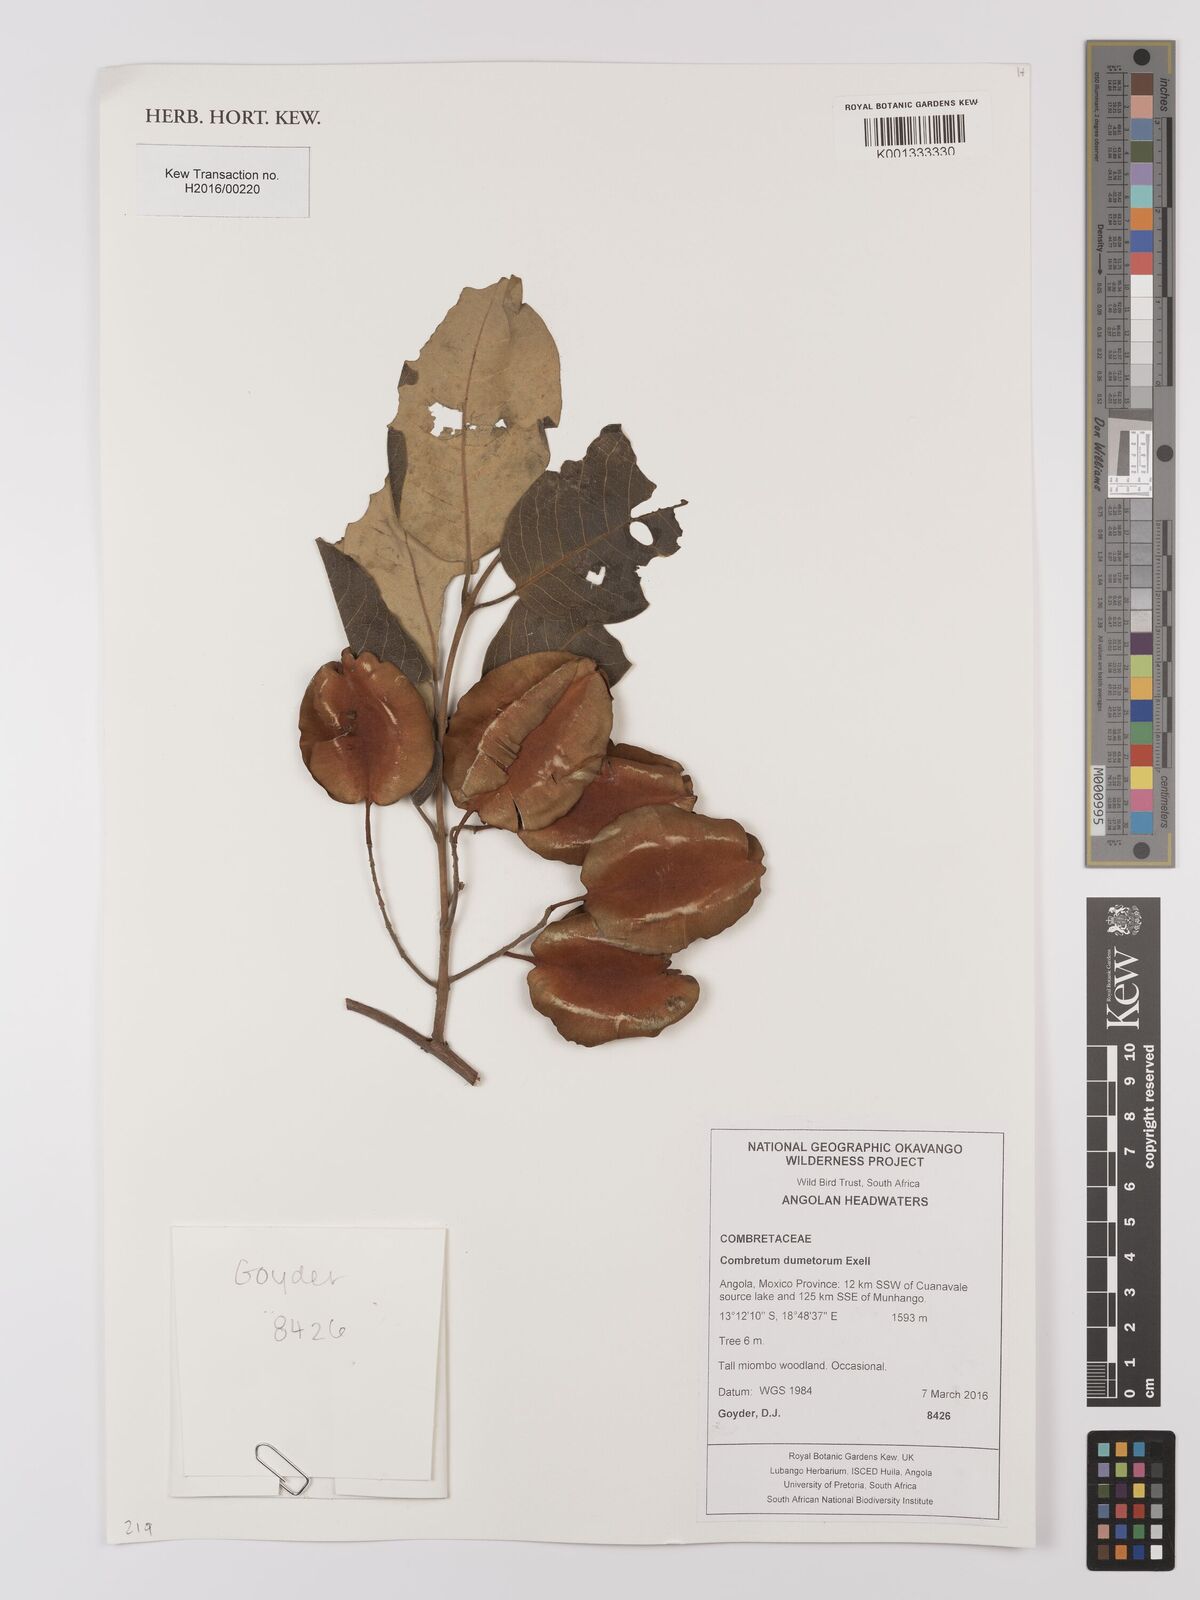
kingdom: Plantae
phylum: Tracheophyta
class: Magnoliopsida
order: Myrtales
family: Combretaceae
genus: Combretum
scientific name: Combretum collinum
